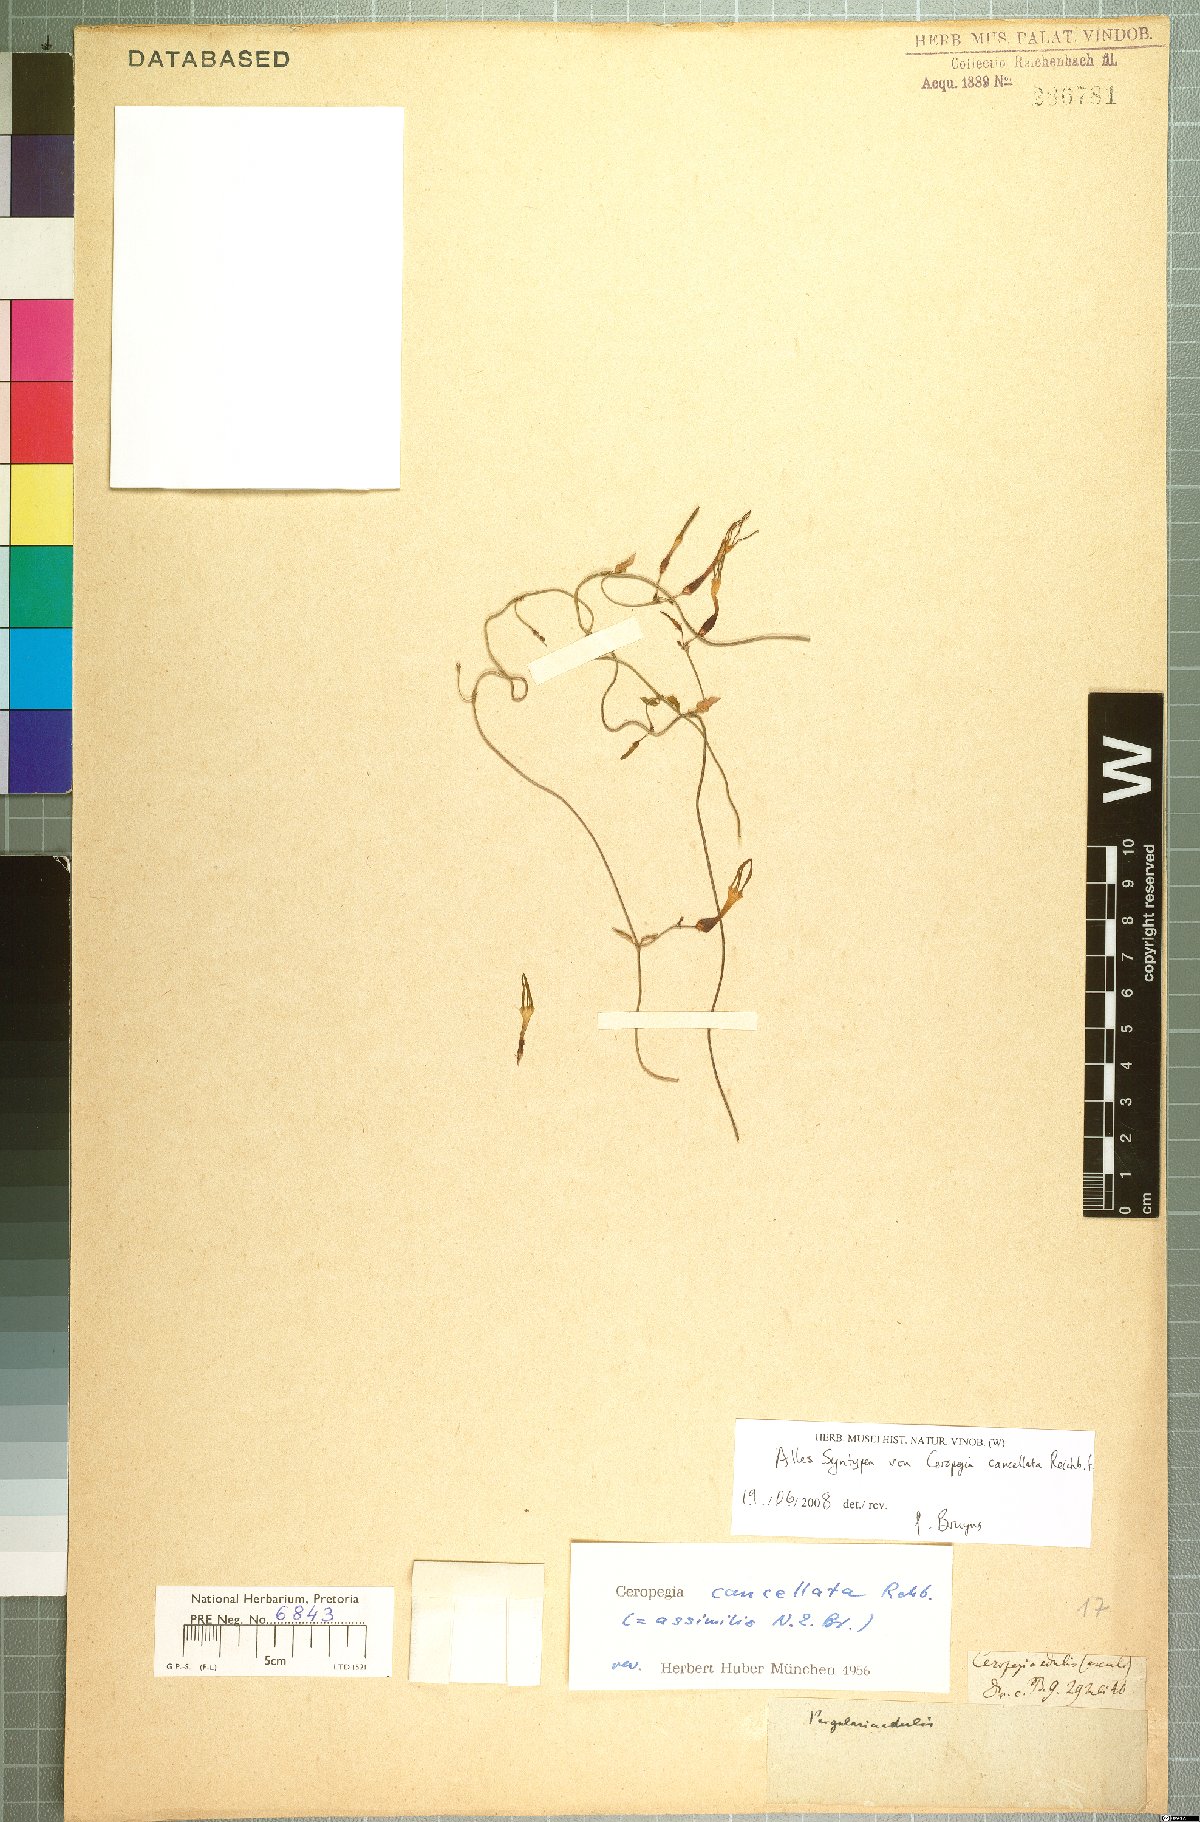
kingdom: Plantae
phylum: Tracheophyta
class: Magnoliopsida
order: Gentianales
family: Apocynaceae
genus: Ceropegia
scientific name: Ceropegia cancellata
